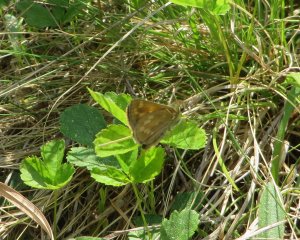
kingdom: Animalia
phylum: Arthropoda
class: Insecta
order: Lepidoptera
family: Hesperiidae
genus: Hesperia
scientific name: Hesperia sassacus
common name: Sassacus Skipper
